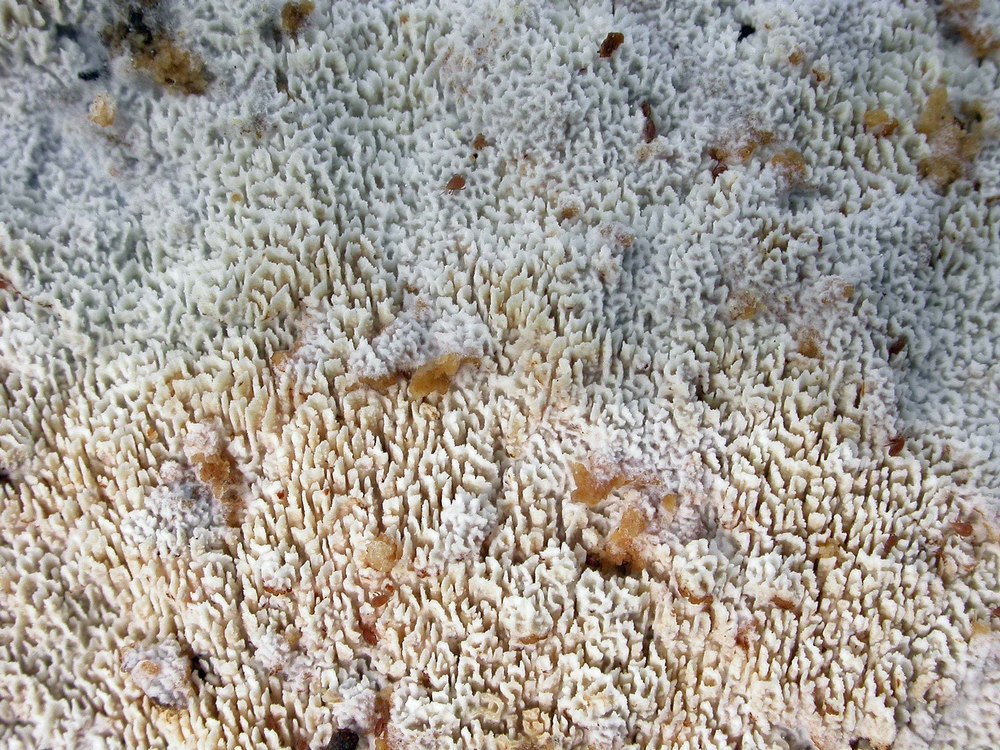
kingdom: Fungi
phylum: Basidiomycota
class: Agaricomycetes
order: Hymenochaetales
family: Schizoporaceae
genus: Schizopora
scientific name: Schizopora paradoxa
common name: hvid tandsvamp
